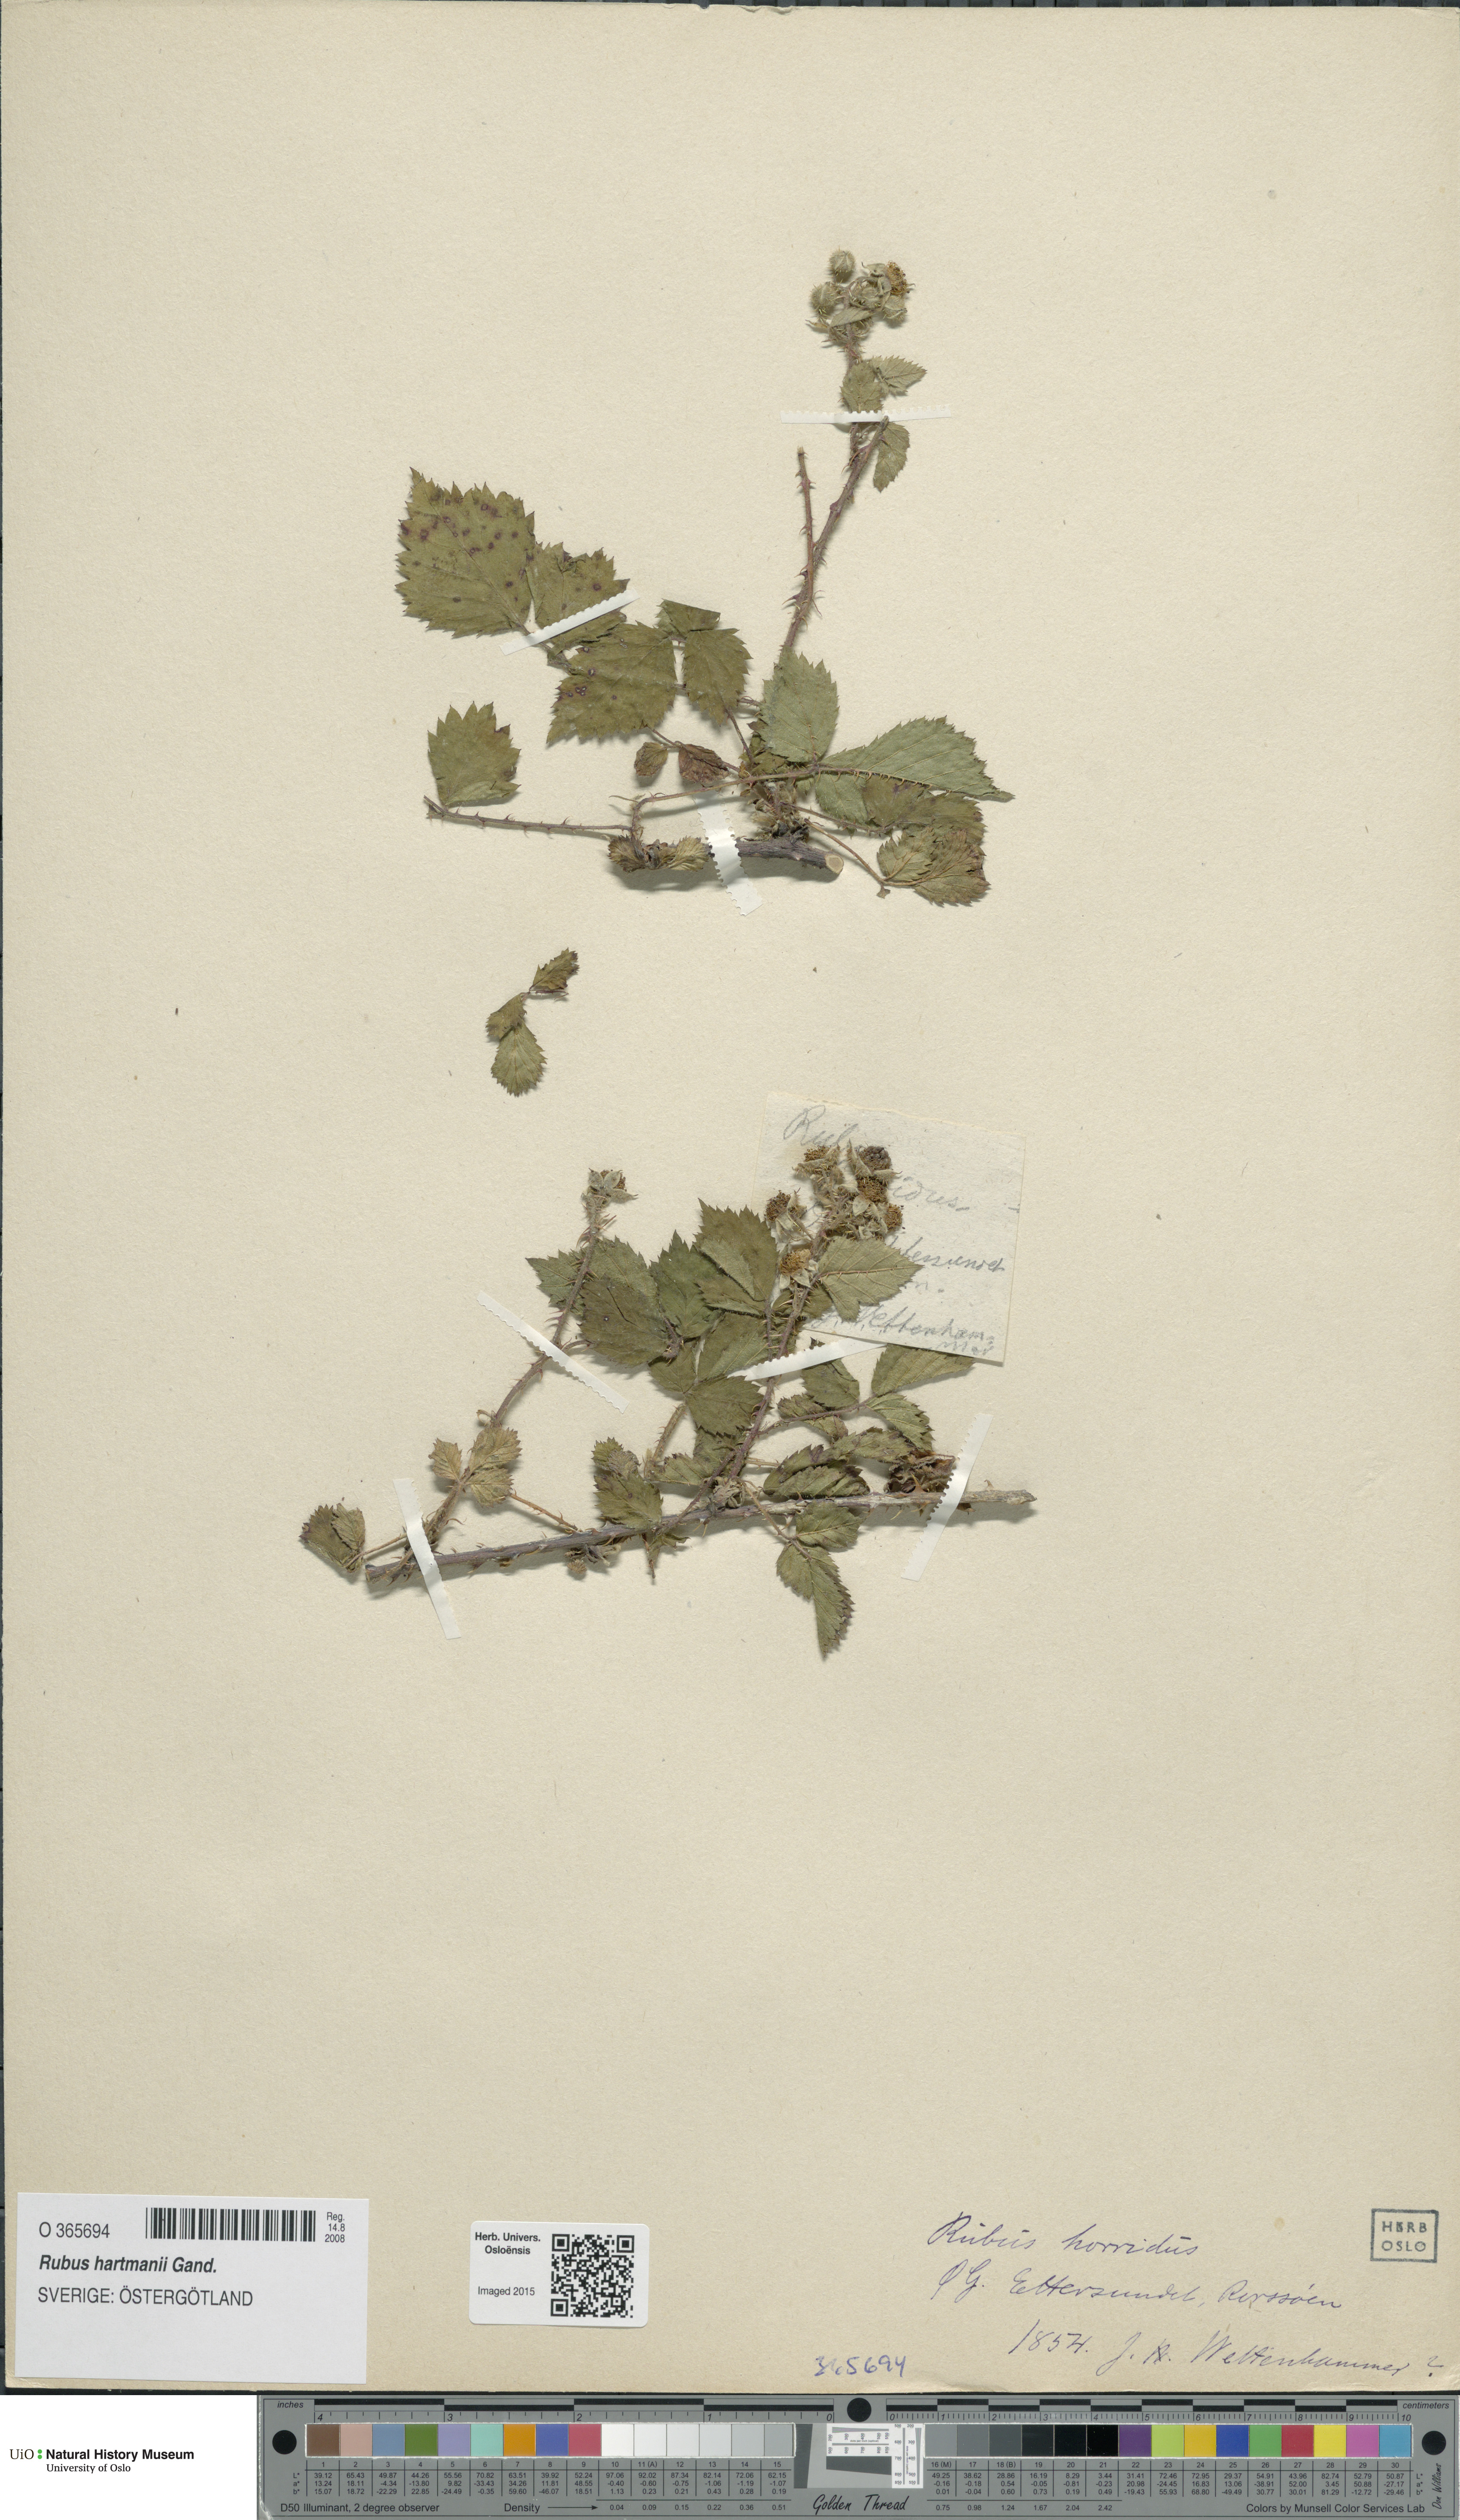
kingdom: Plantae
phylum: Tracheophyta
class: Magnoliopsida
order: Rosales
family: Rosaceae
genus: Rubus
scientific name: Rubus hartmanii
